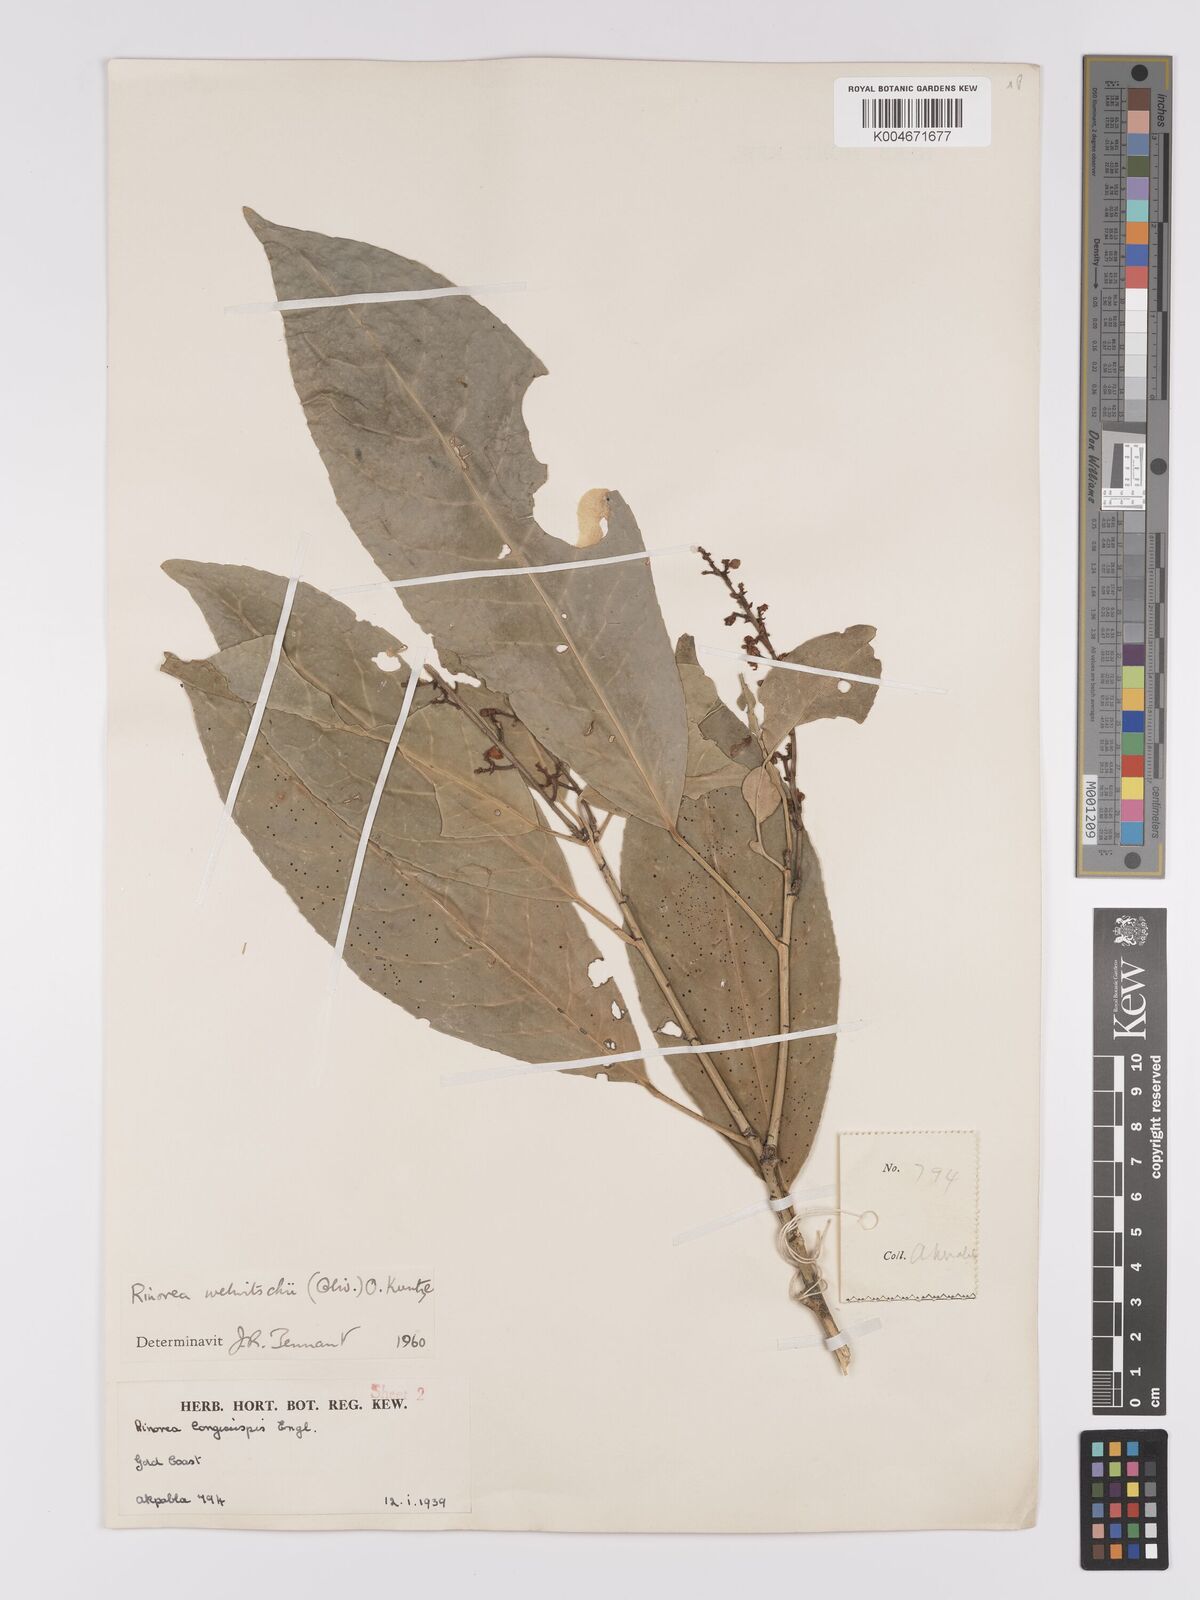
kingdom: Plantae
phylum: Tracheophyta
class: Magnoliopsida
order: Malpighiales
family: Violaceae
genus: Rinorea
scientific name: Rinorea welwitschii
